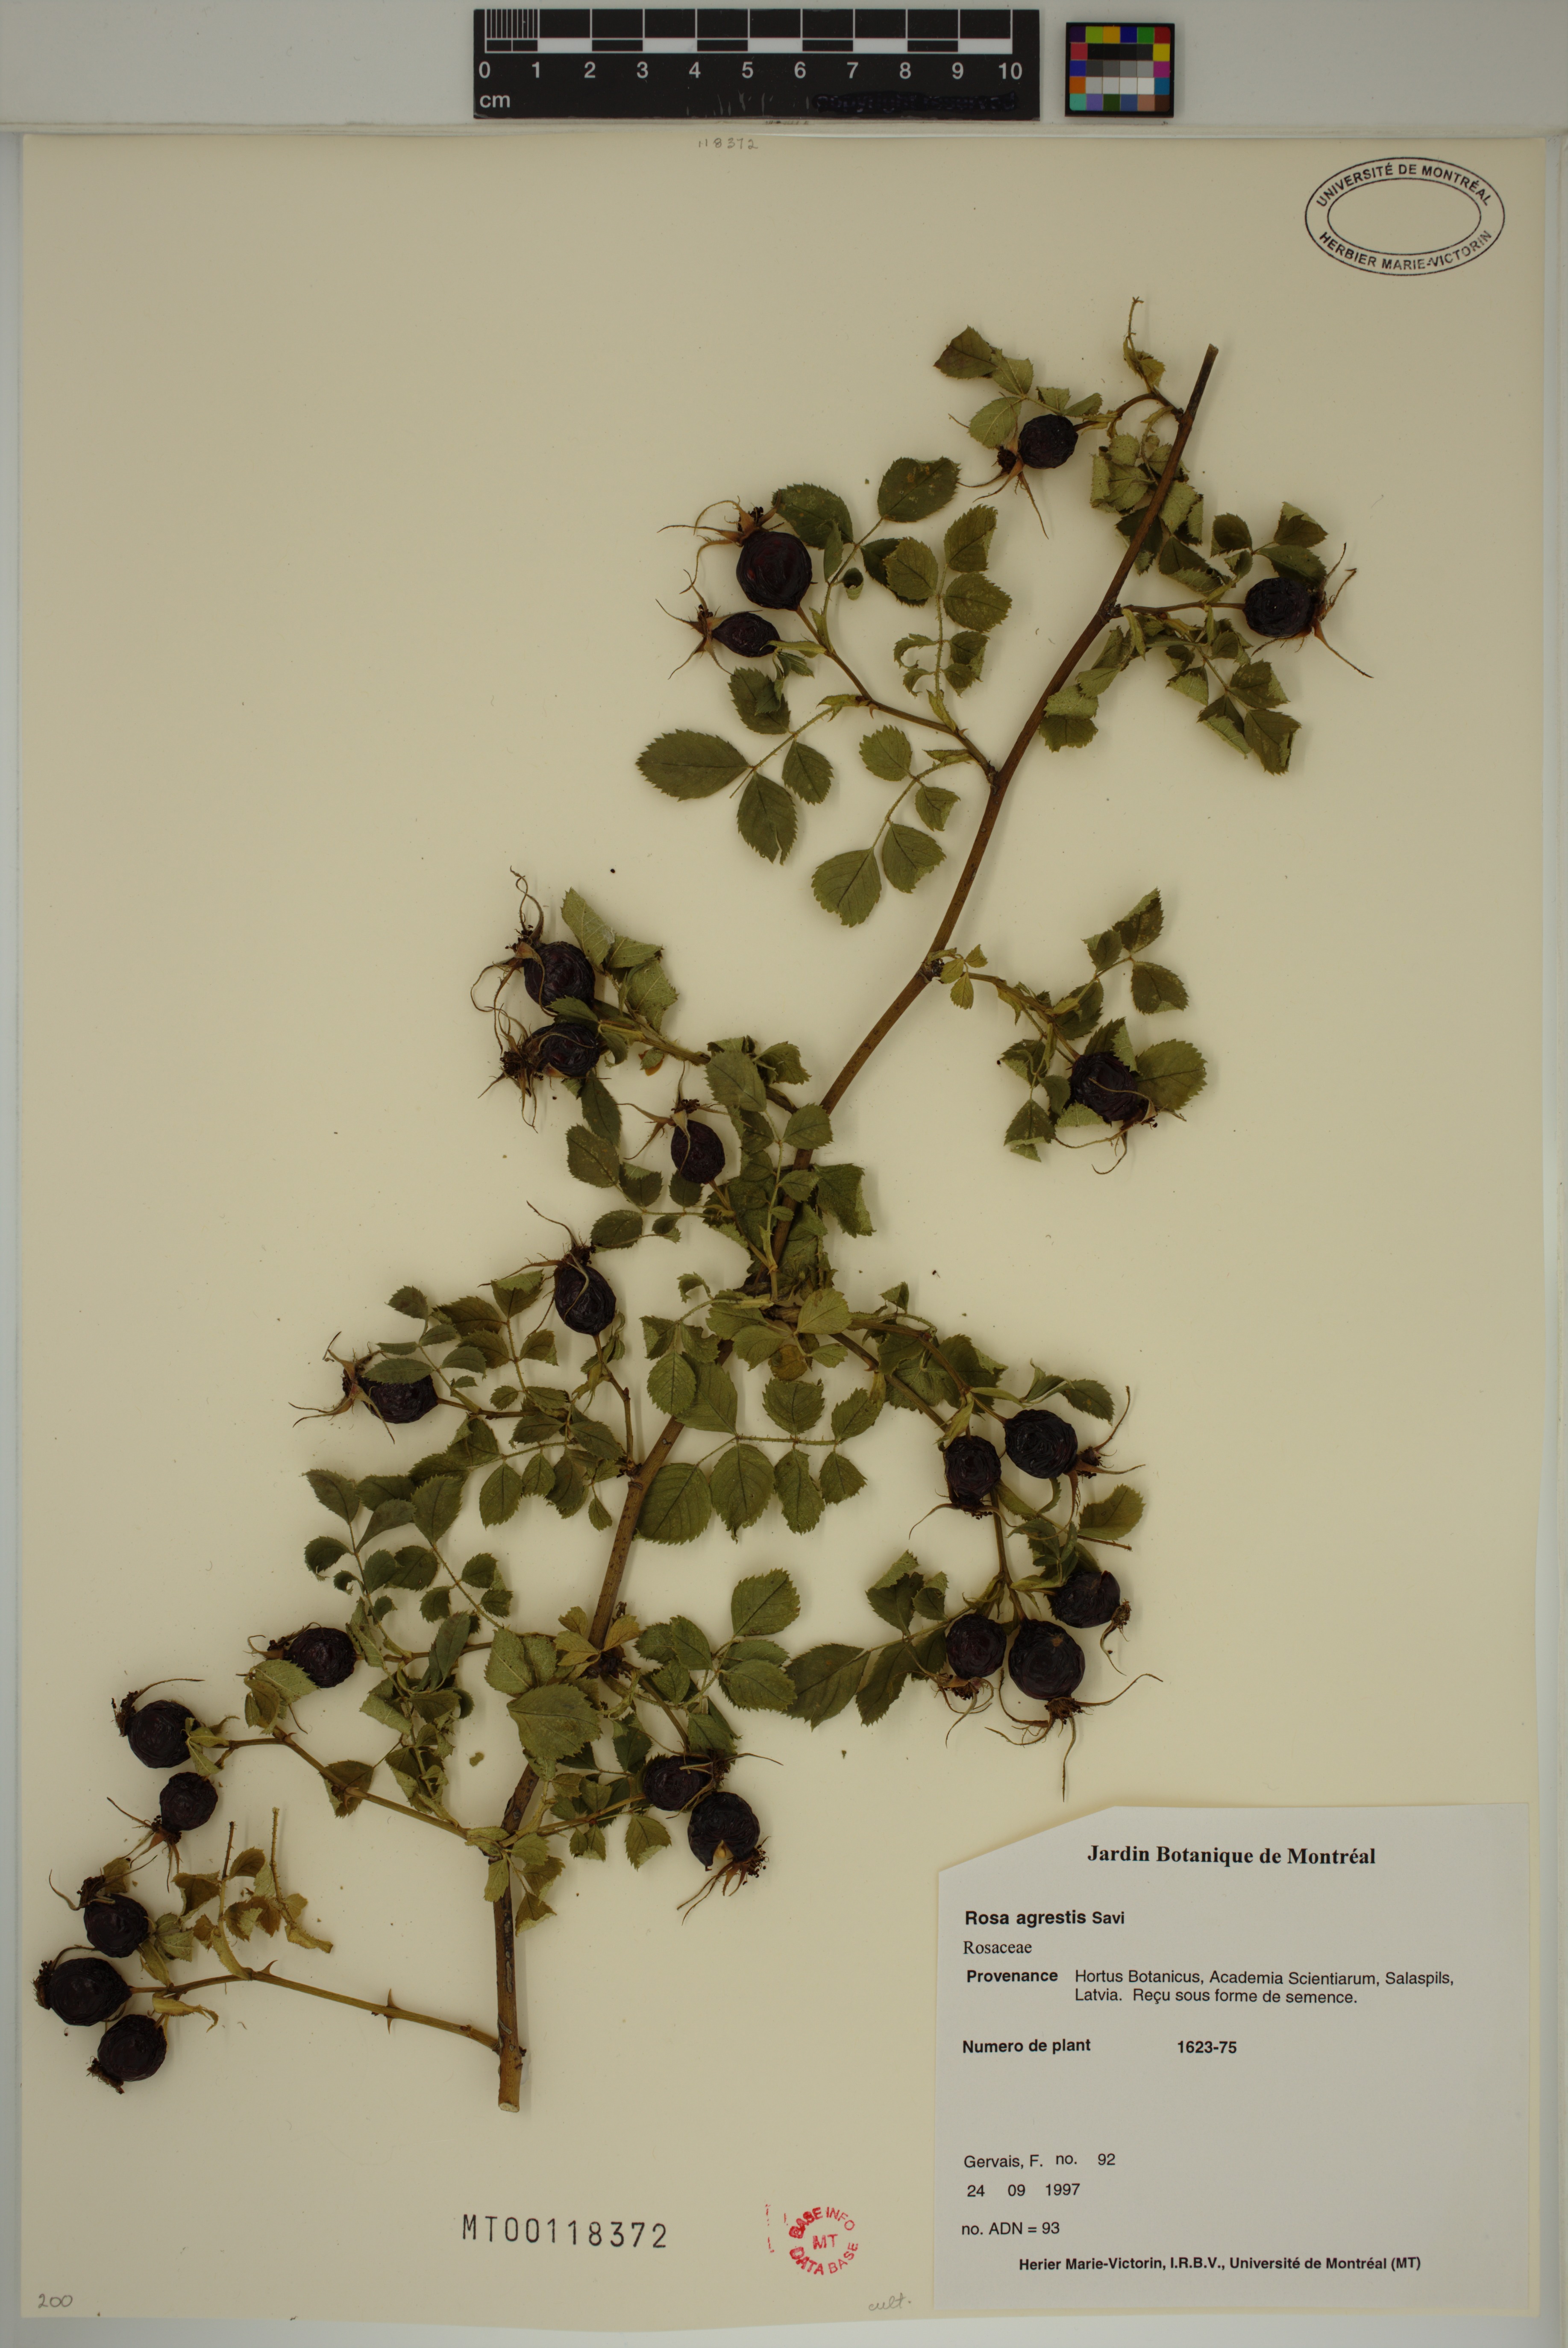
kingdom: Plantae
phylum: Tracheophyta
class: Magnoliopsida
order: Rosales
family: Rosaceae
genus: Rosa
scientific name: Rosa agrestis
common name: Fieldbriar
